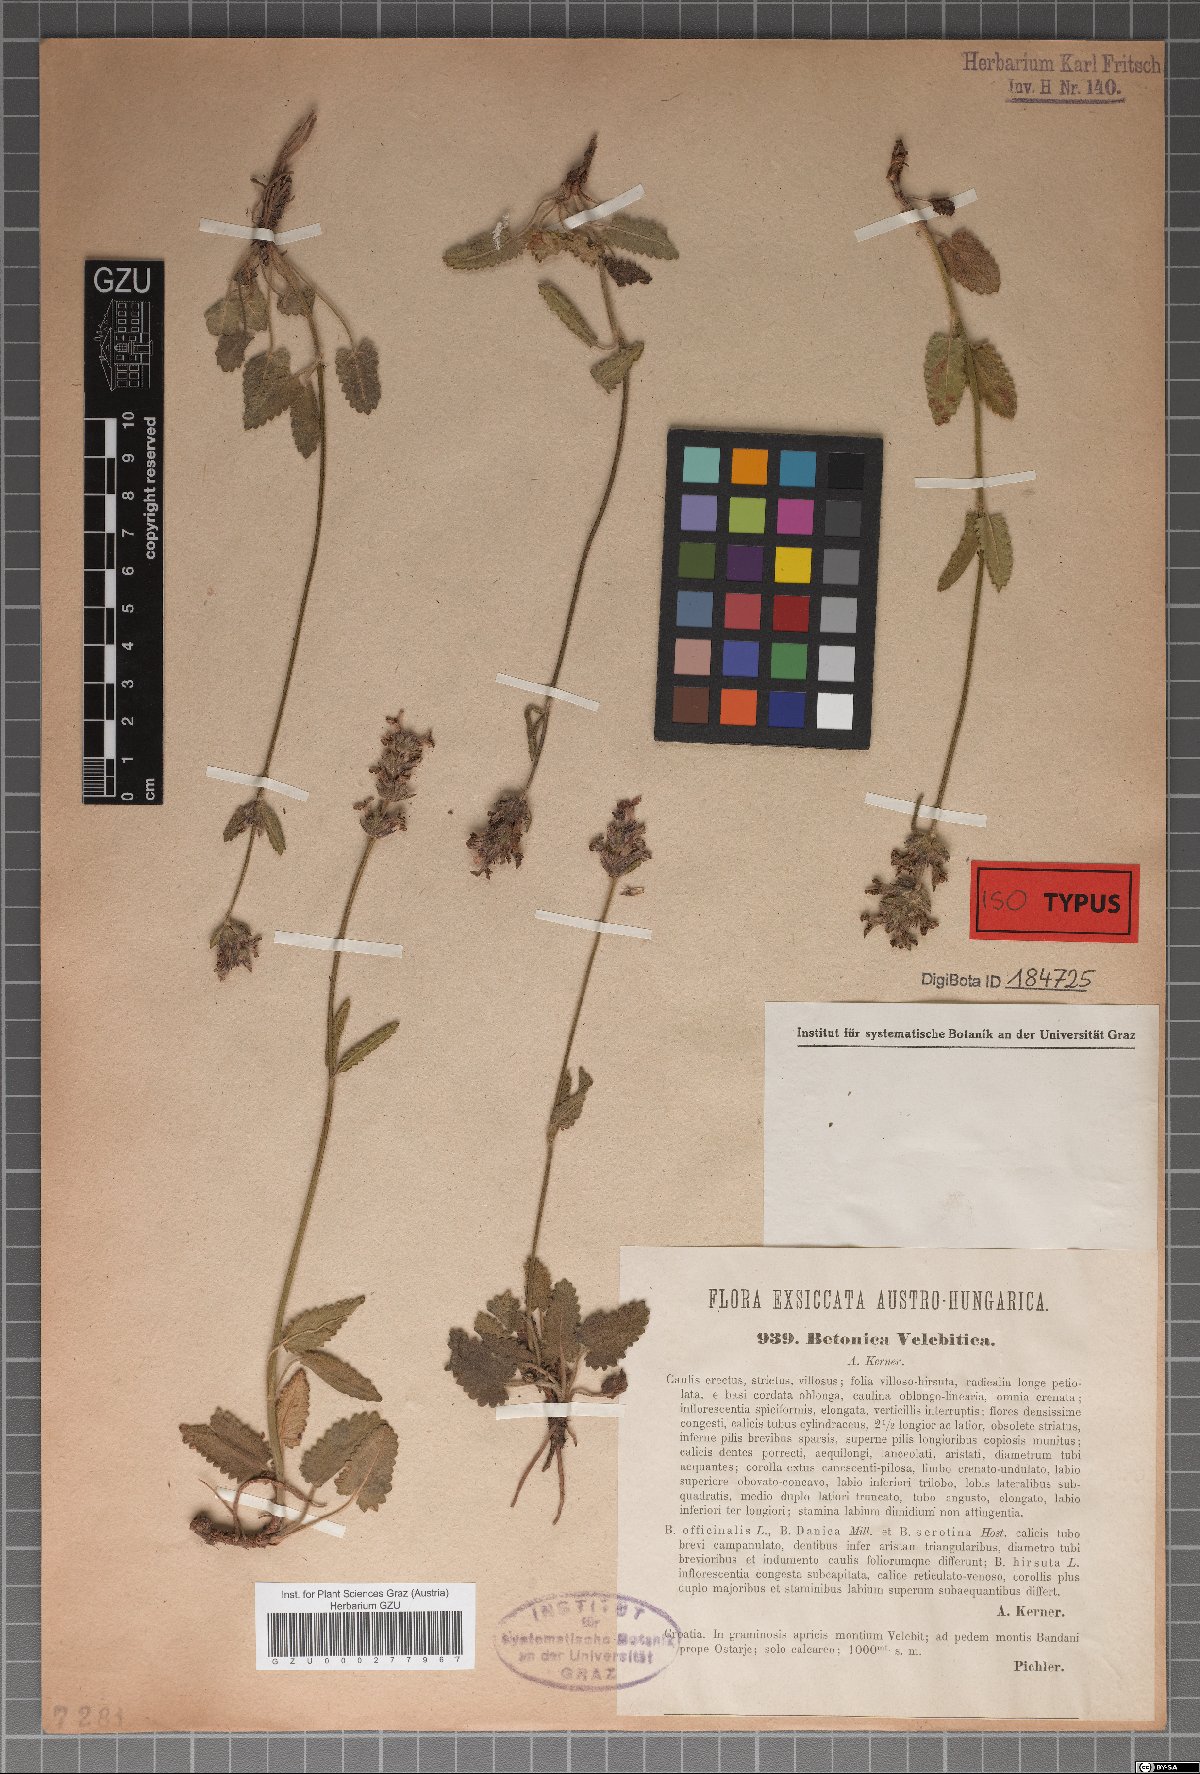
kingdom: Plantae
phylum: Tracheophyta
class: Magnoliopsida
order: Lamiales
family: Lamiaceae
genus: Betonica
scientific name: Betonica officinalis
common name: Bishop's-wort
